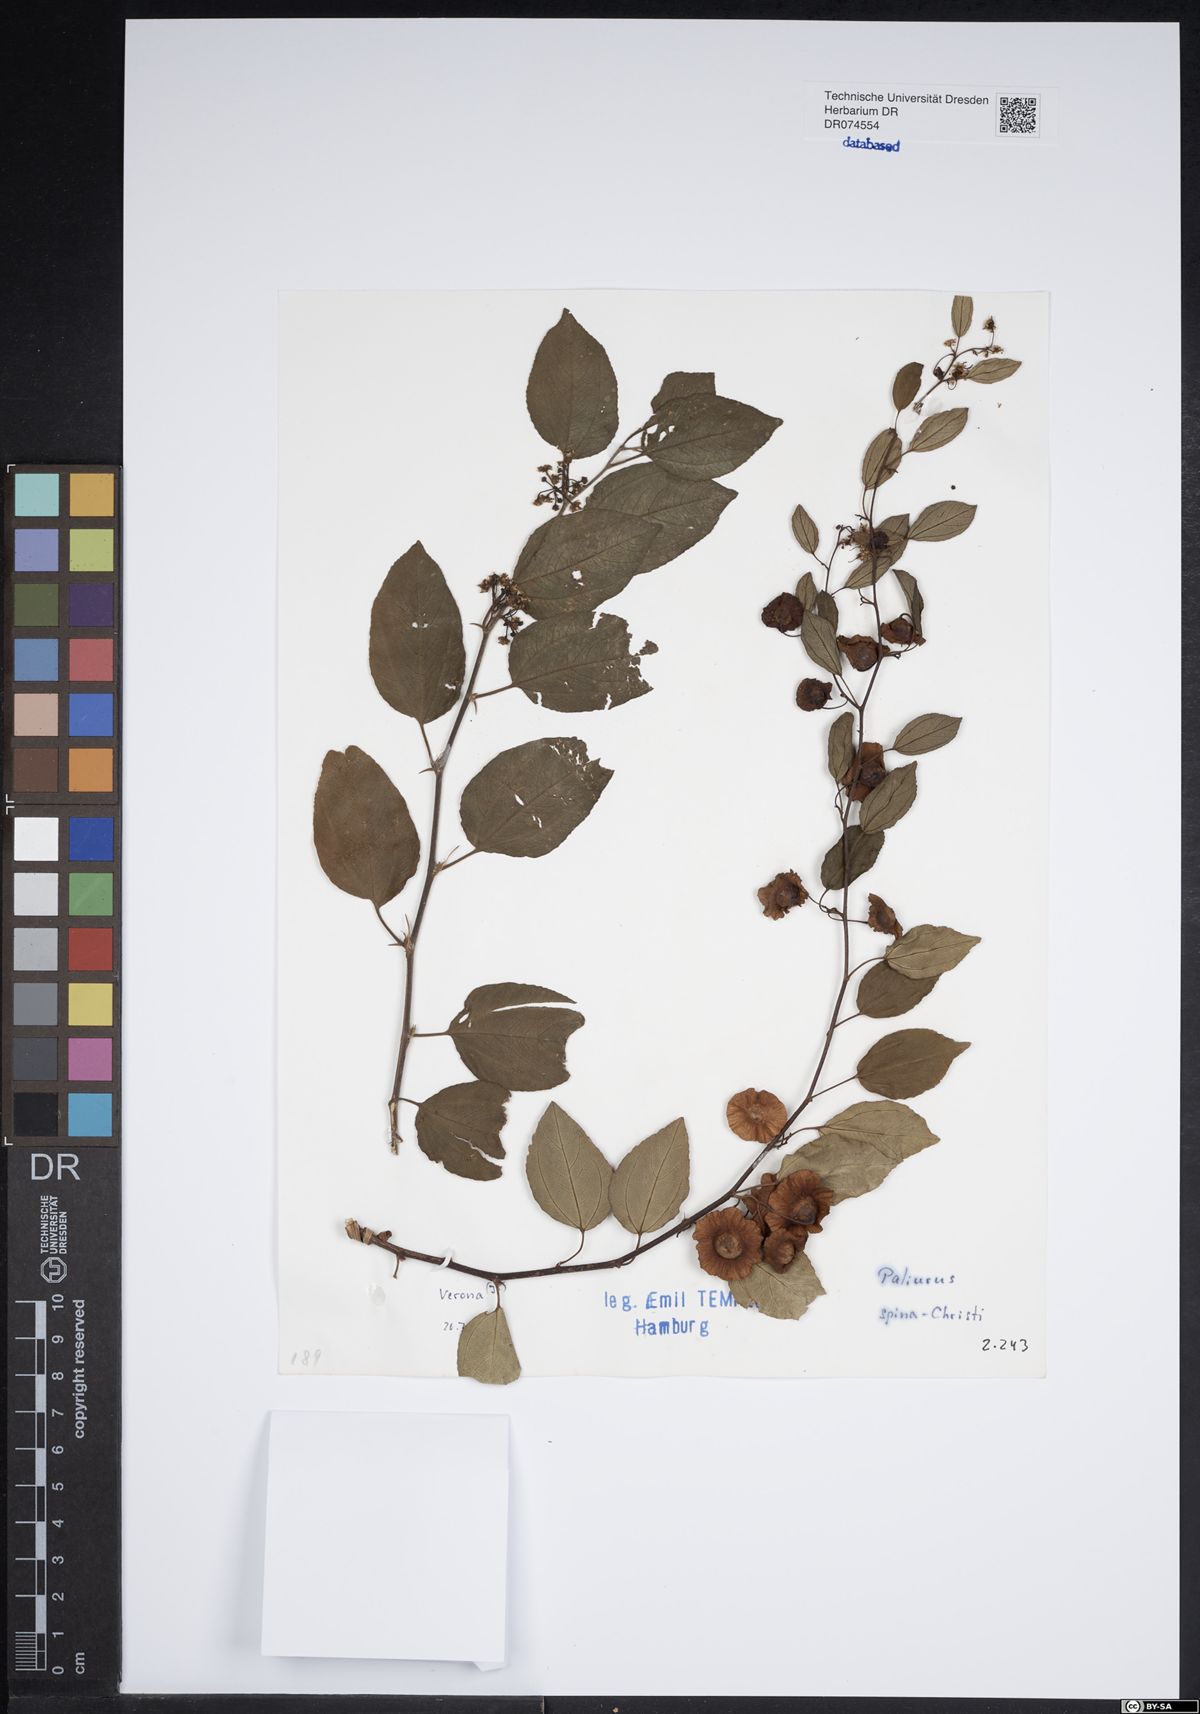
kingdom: Plantae
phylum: Tracheophyta
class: Magnoliopsida
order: Rosales
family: Rhamnaceae
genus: Paliurus
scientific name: Paliurus spina-christi
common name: Jeruselem thorn
